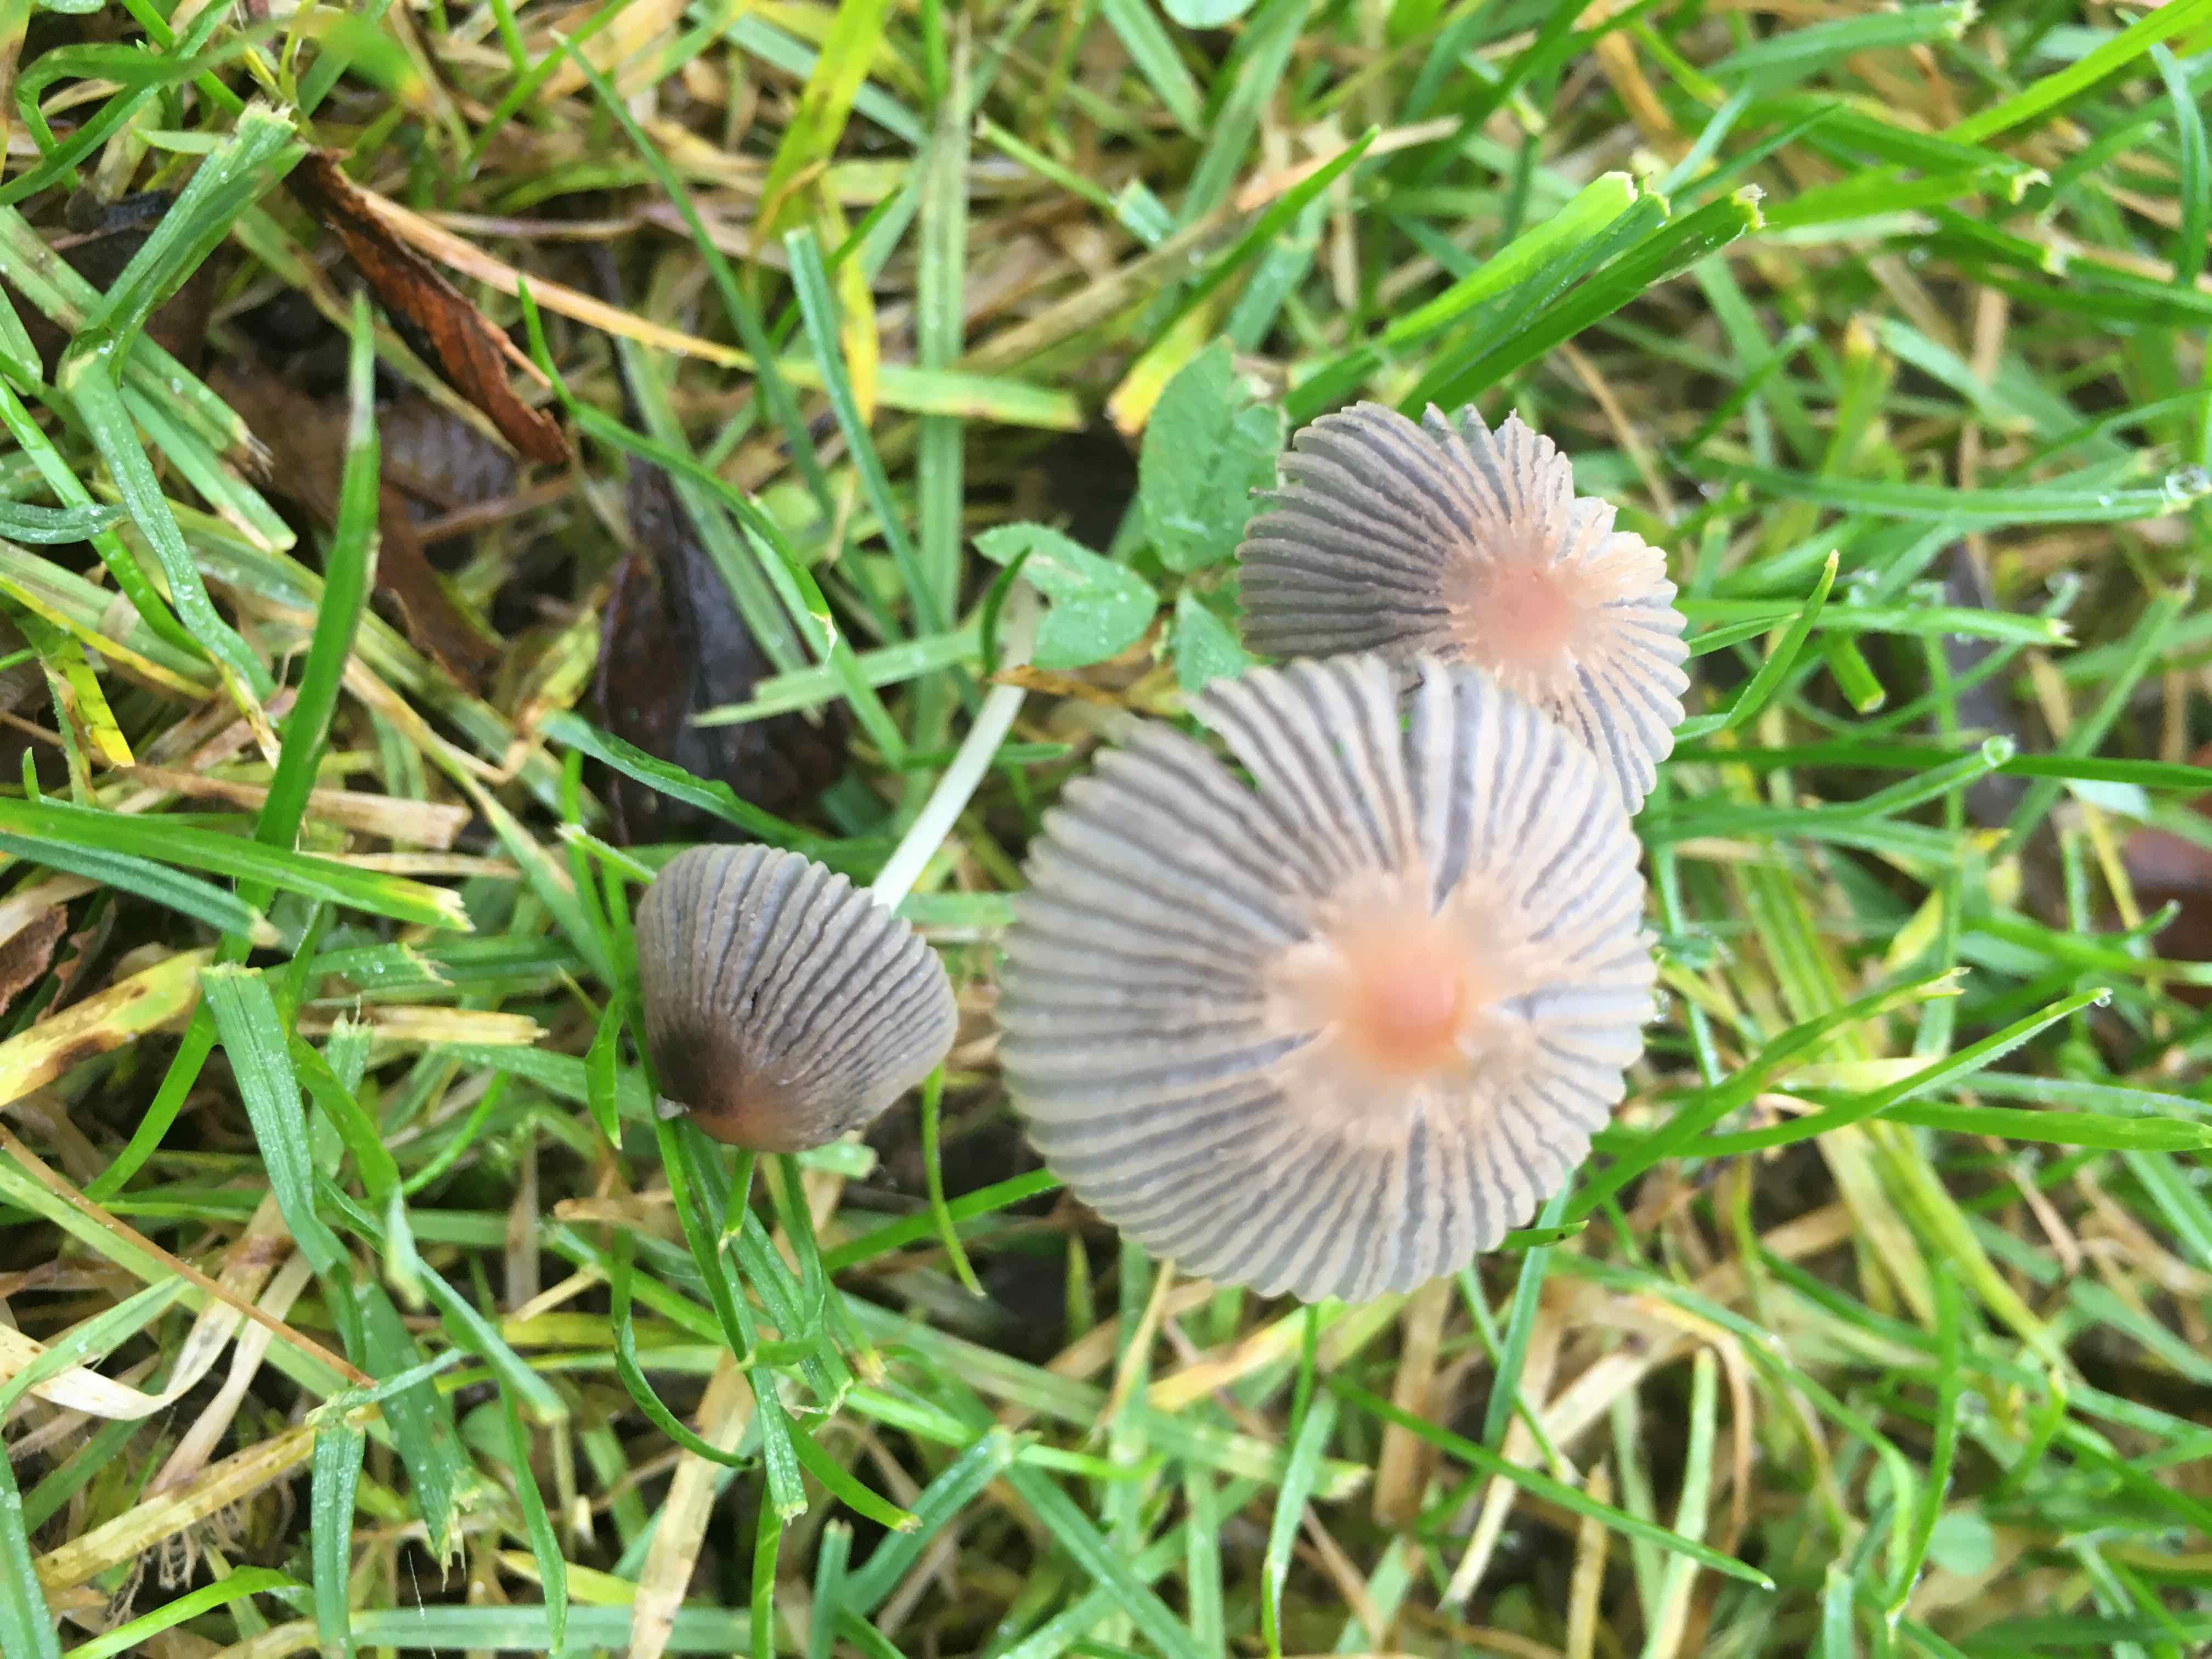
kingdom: Fungi
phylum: Basidiomycota
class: Agaricomycetes
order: Agaricales
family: Psathyrellaceae
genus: Parasola
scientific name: Parasola
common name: hjulhat
